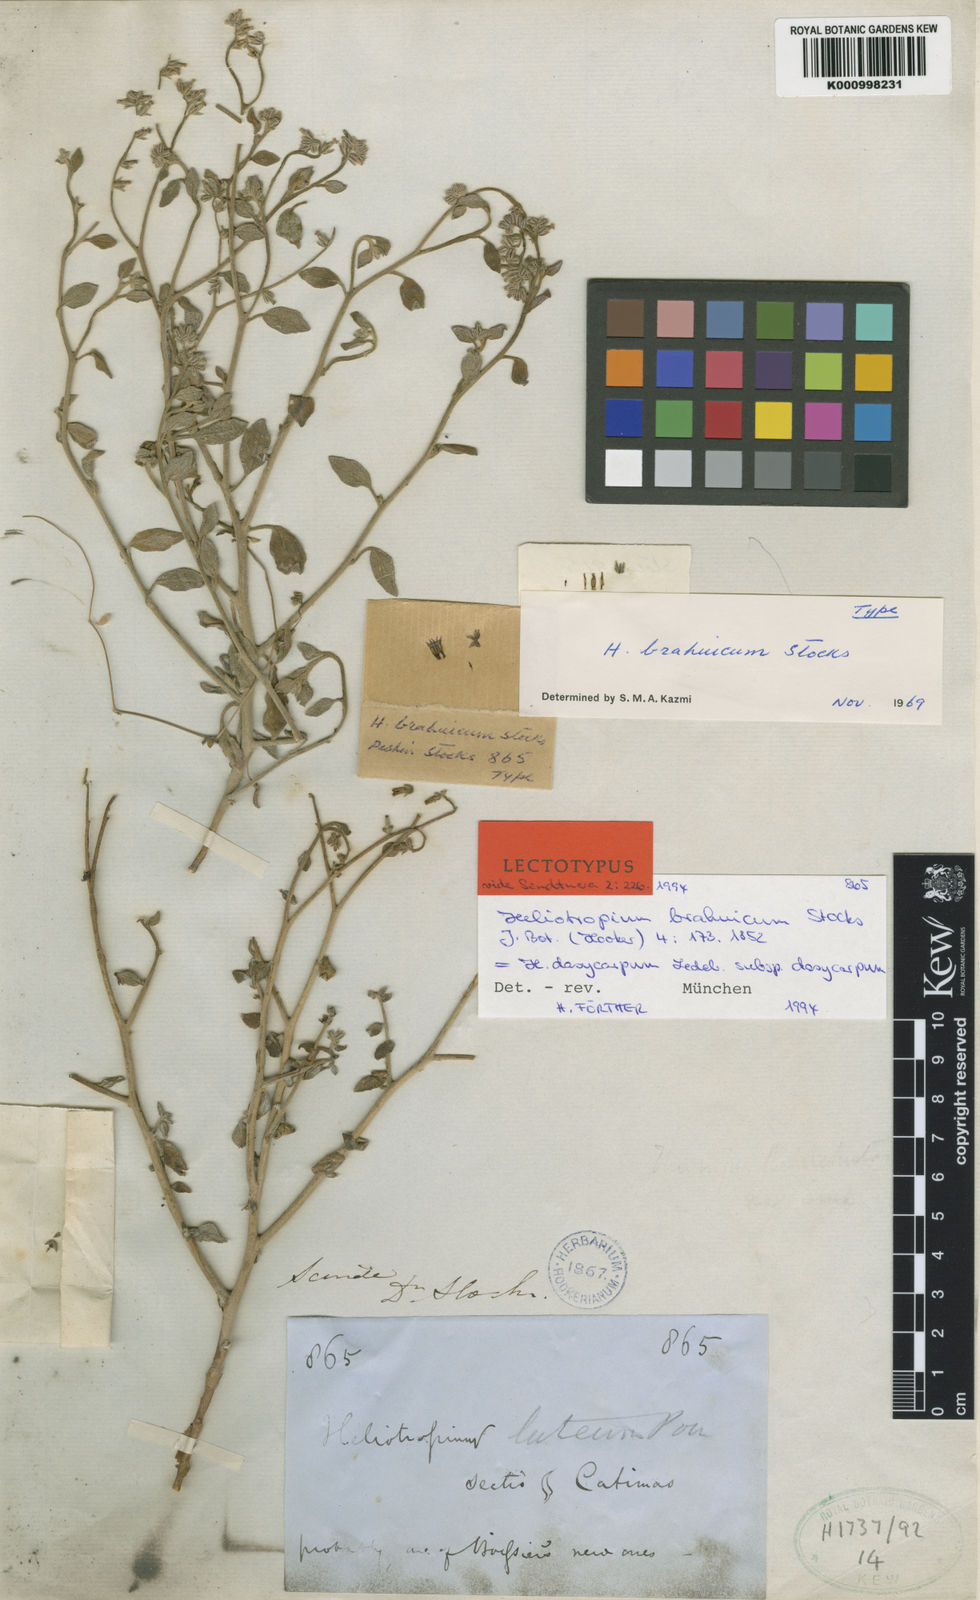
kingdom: Plantae
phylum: Tracheophyta
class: Magnoliopsida
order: Boraginales
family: Heliotropiaceae
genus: Heliotropium
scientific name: Heliotropium dasycarpum
